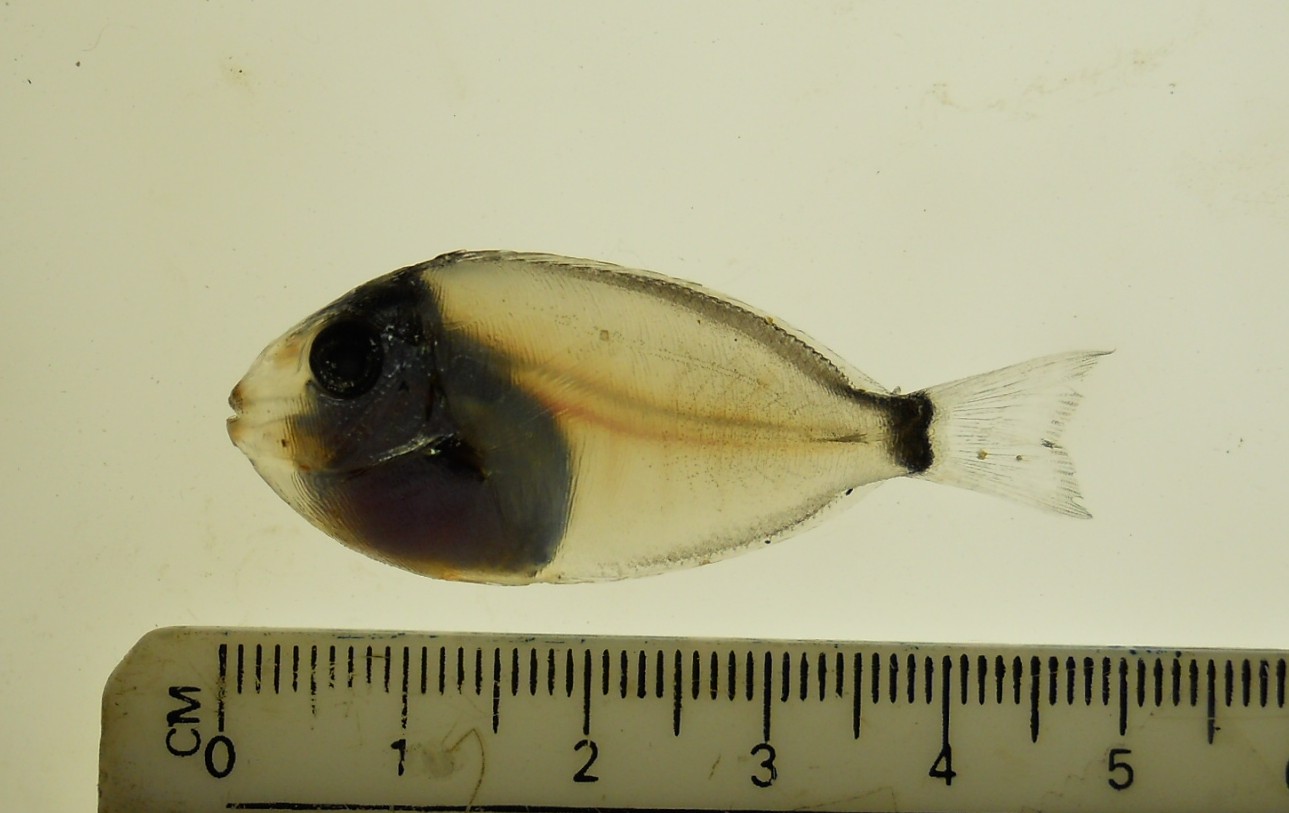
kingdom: Animalia
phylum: Chordata
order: Perciformes
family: Acanthuridae
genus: Acanthurus
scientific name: Acanthurus nigrofuscus
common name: Blackspot surgeonfish
